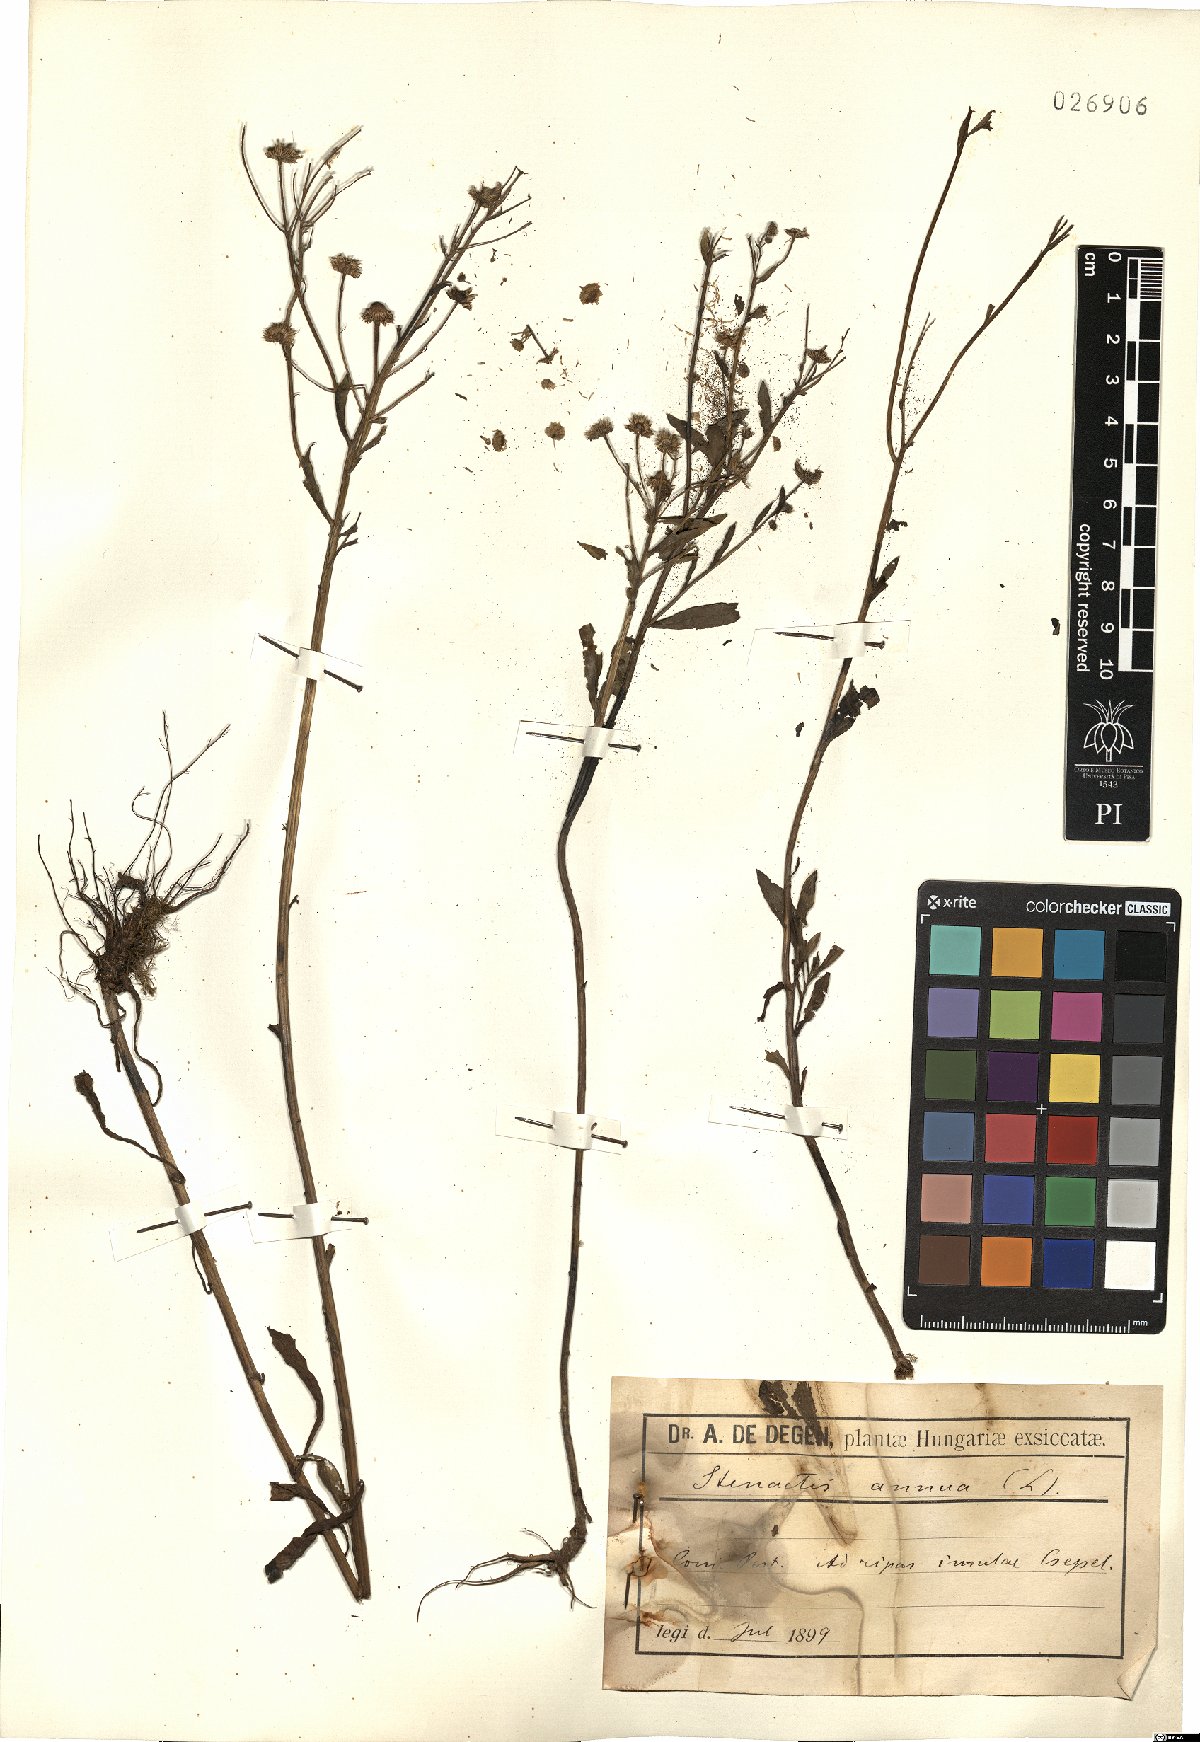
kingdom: Plantae
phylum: Tracheophyta
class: Magnoliopsida
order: Asterales
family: Asteraceae
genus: Erigeron
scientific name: Erigeron annuus
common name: Tall fleabane
